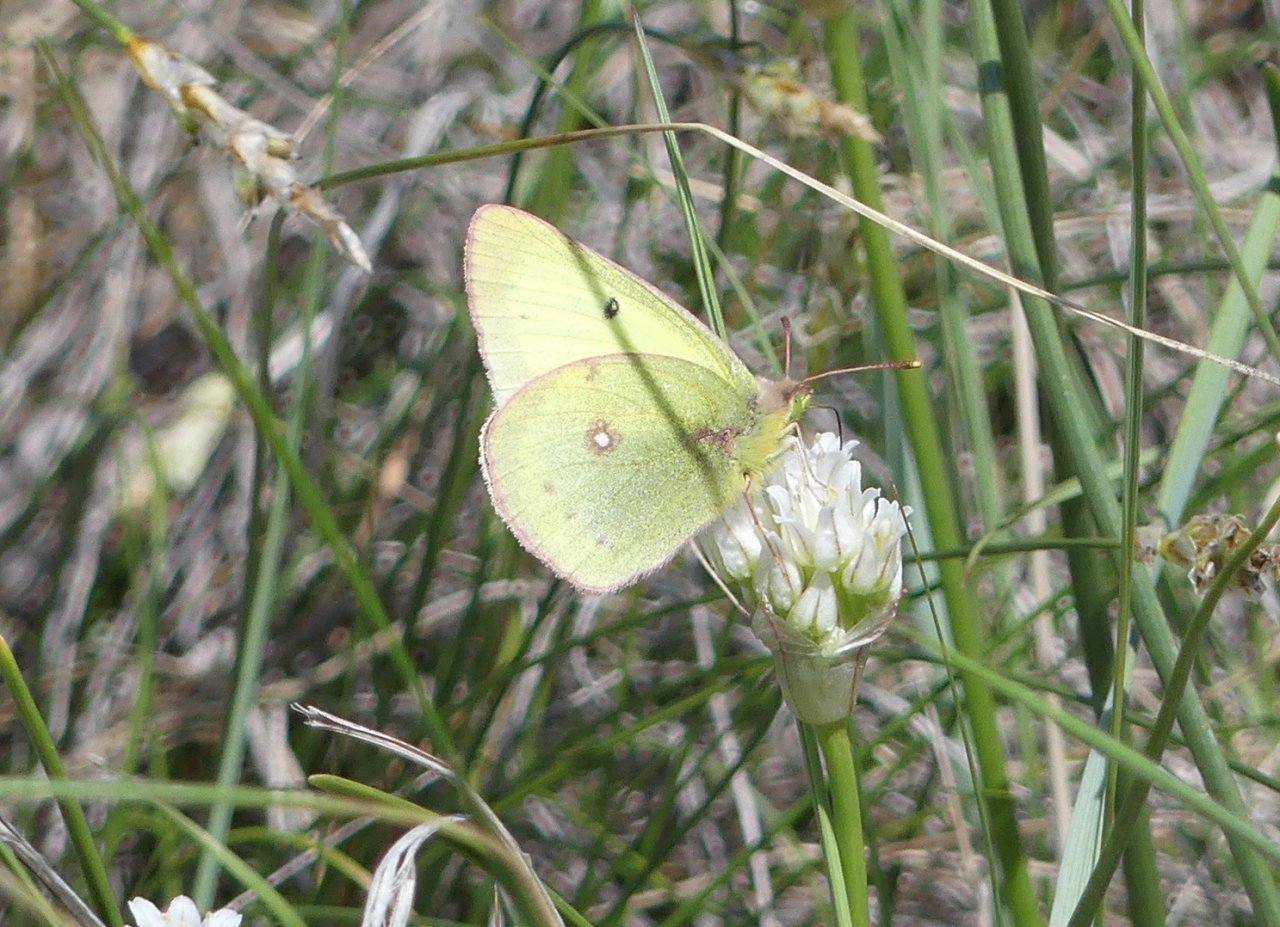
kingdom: Animalia
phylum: Arthropoda
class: Insecta
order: Lepidoptera
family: Pieridae
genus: Colias
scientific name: Colias philodice
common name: Clouded Sulphur
